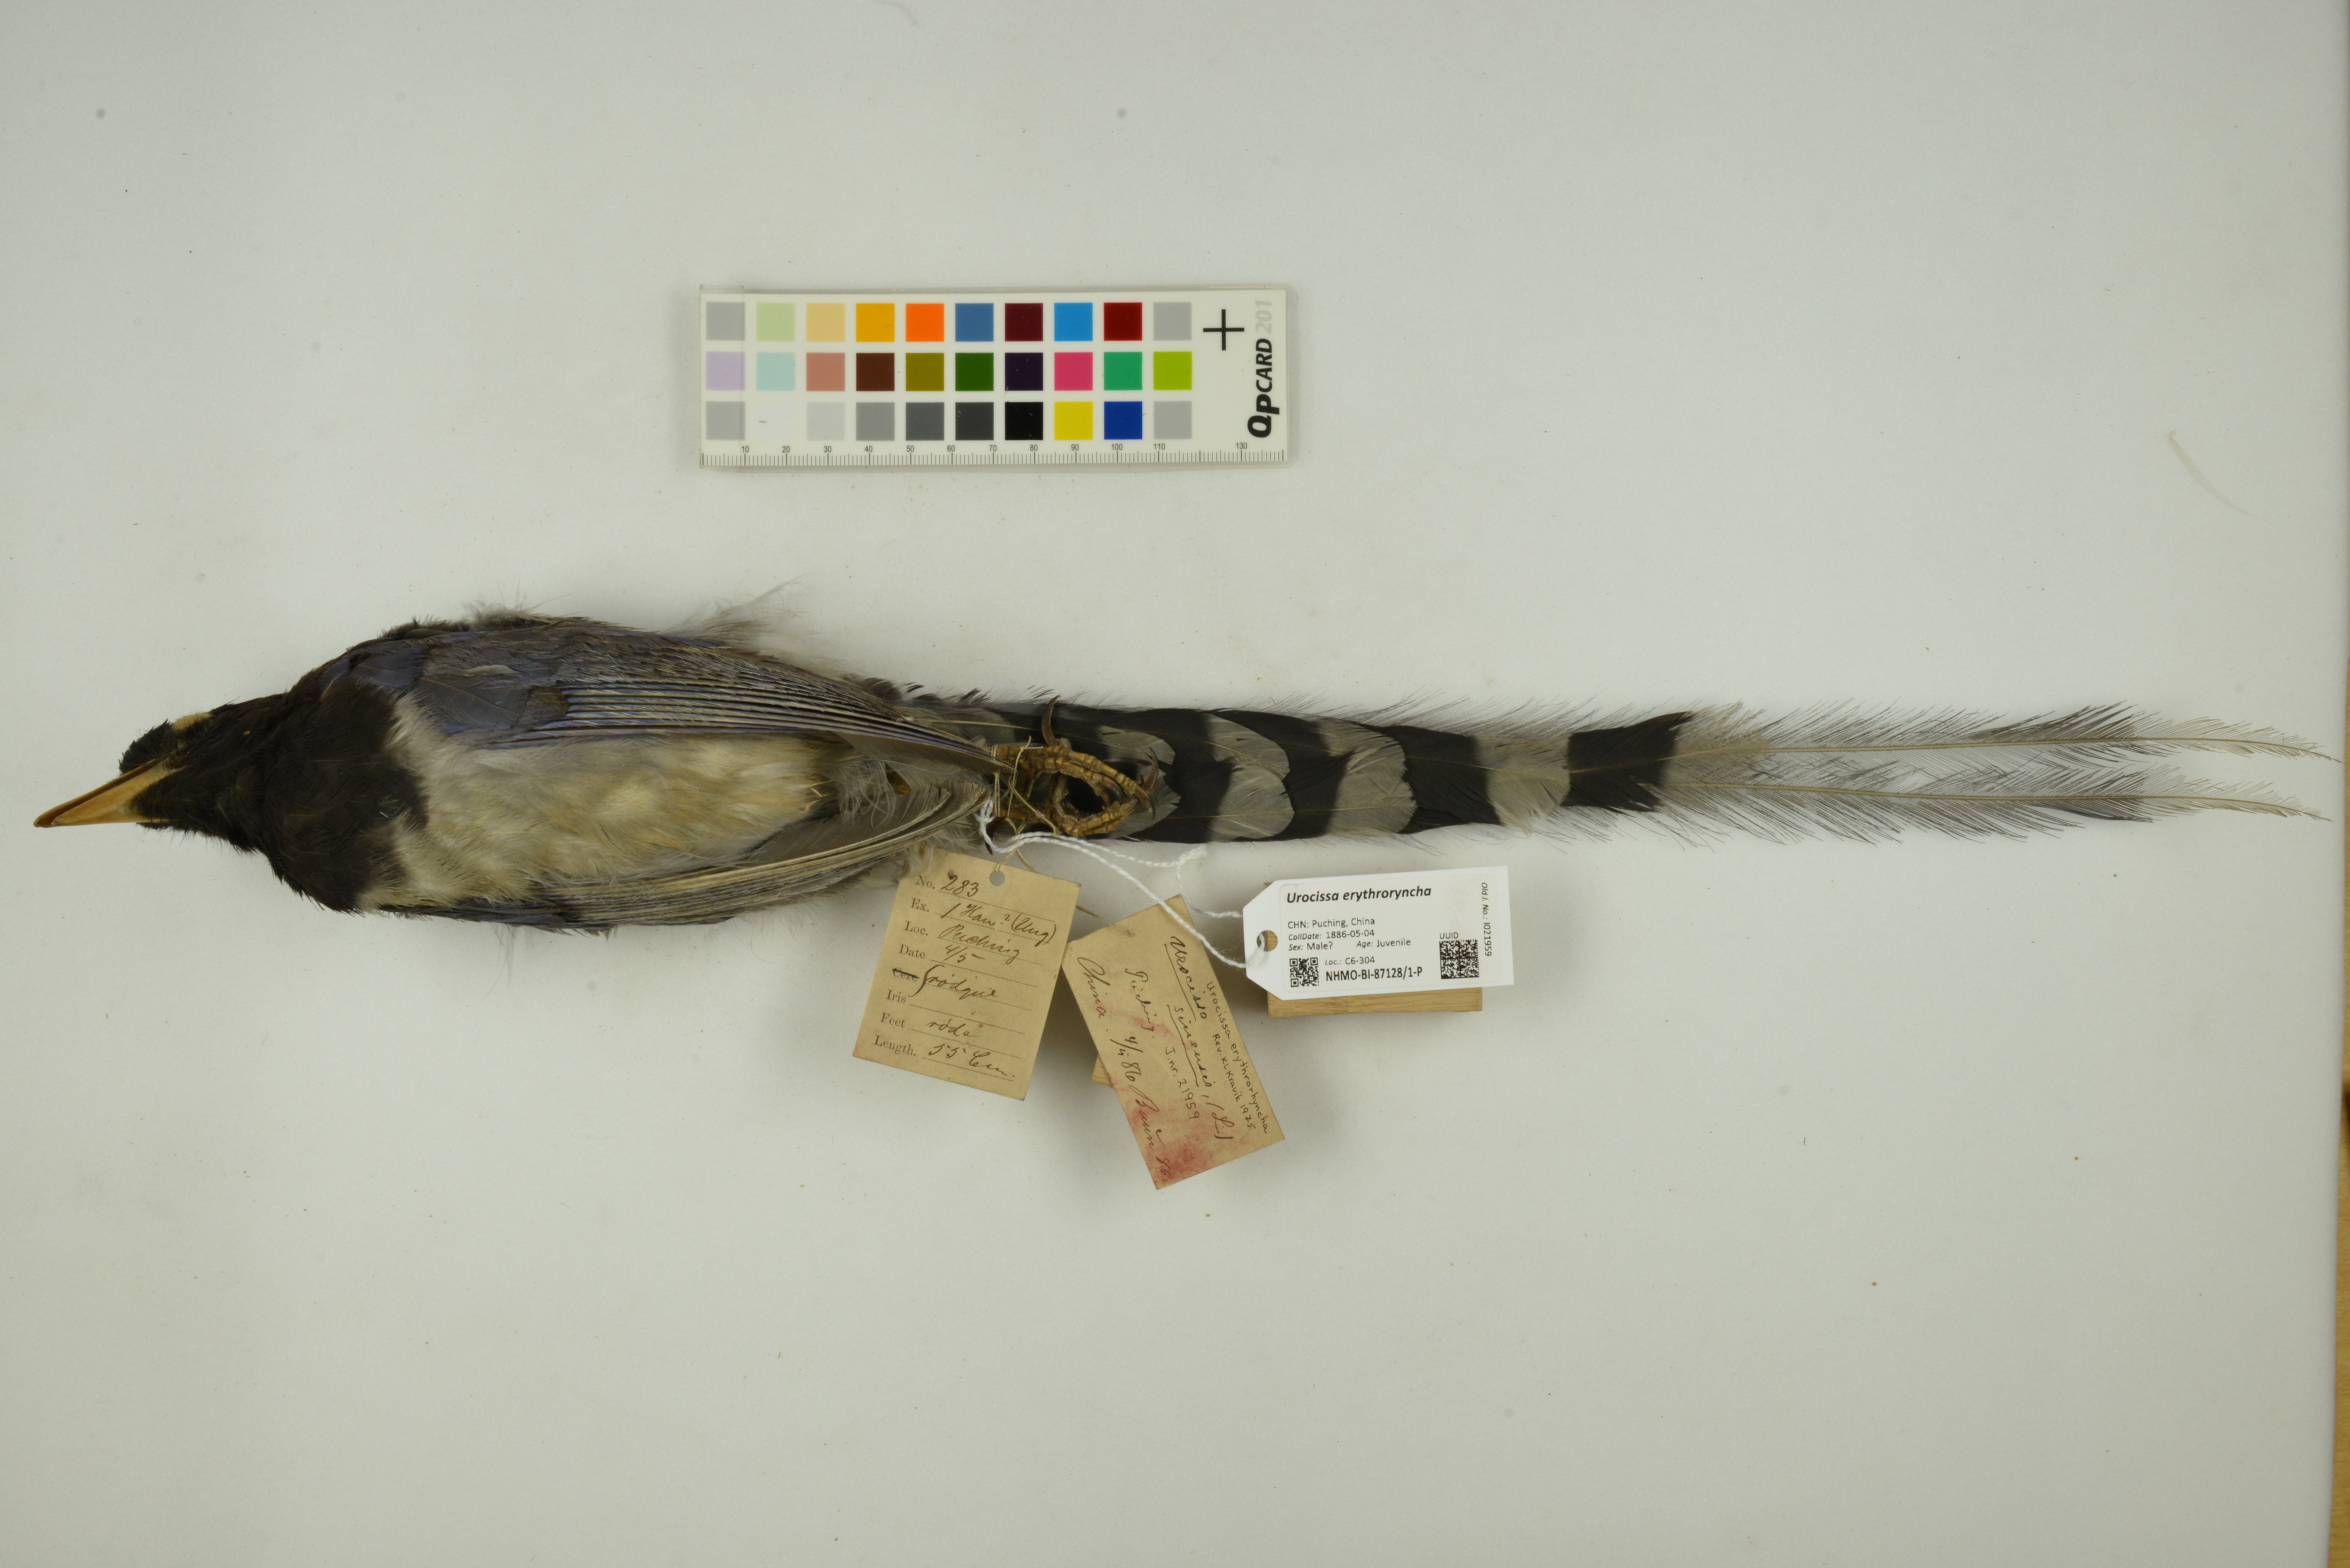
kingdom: Animalia
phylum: Chordata
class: Aves
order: Passeriformes
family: Corvidae
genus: Urocissa
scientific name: Urocissa erythroryncha
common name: Red-billed blue magpie
